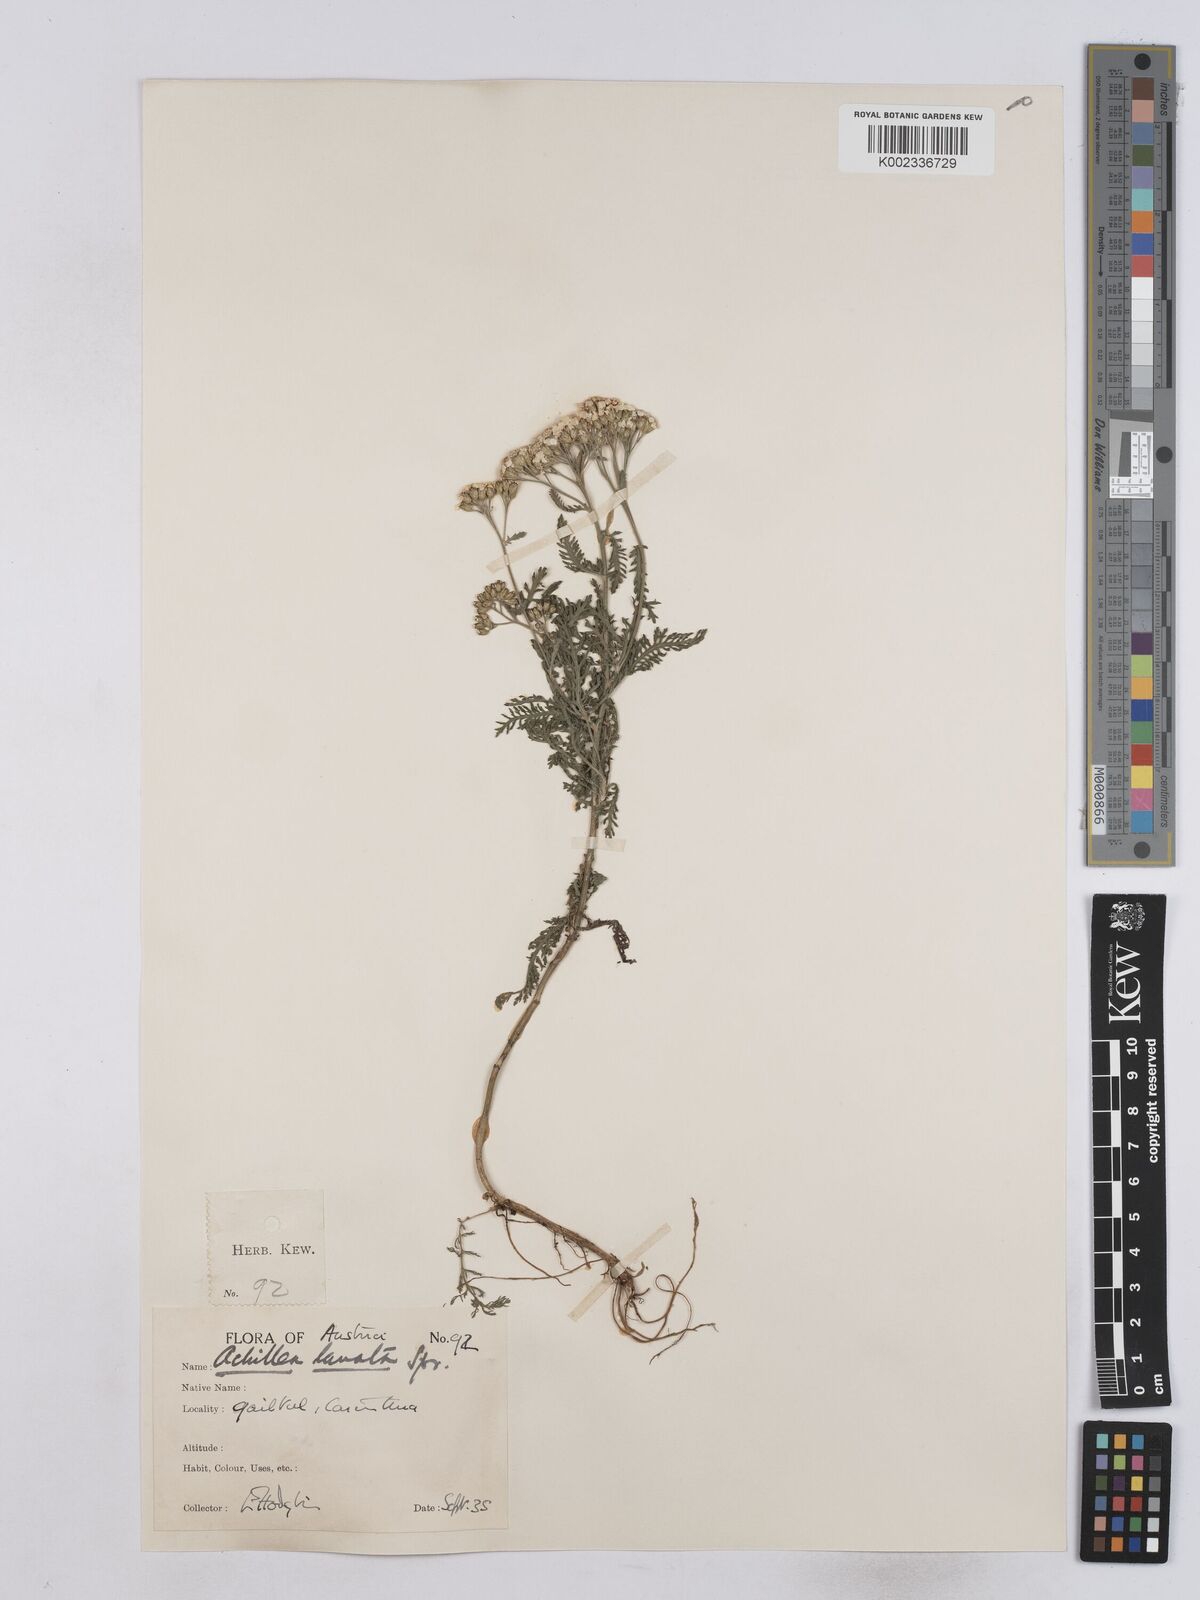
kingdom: Plantae
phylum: Tracheophyta
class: Magnoliopsida
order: Asterales
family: Asteraceae
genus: Achillea
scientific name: Achillea collina
